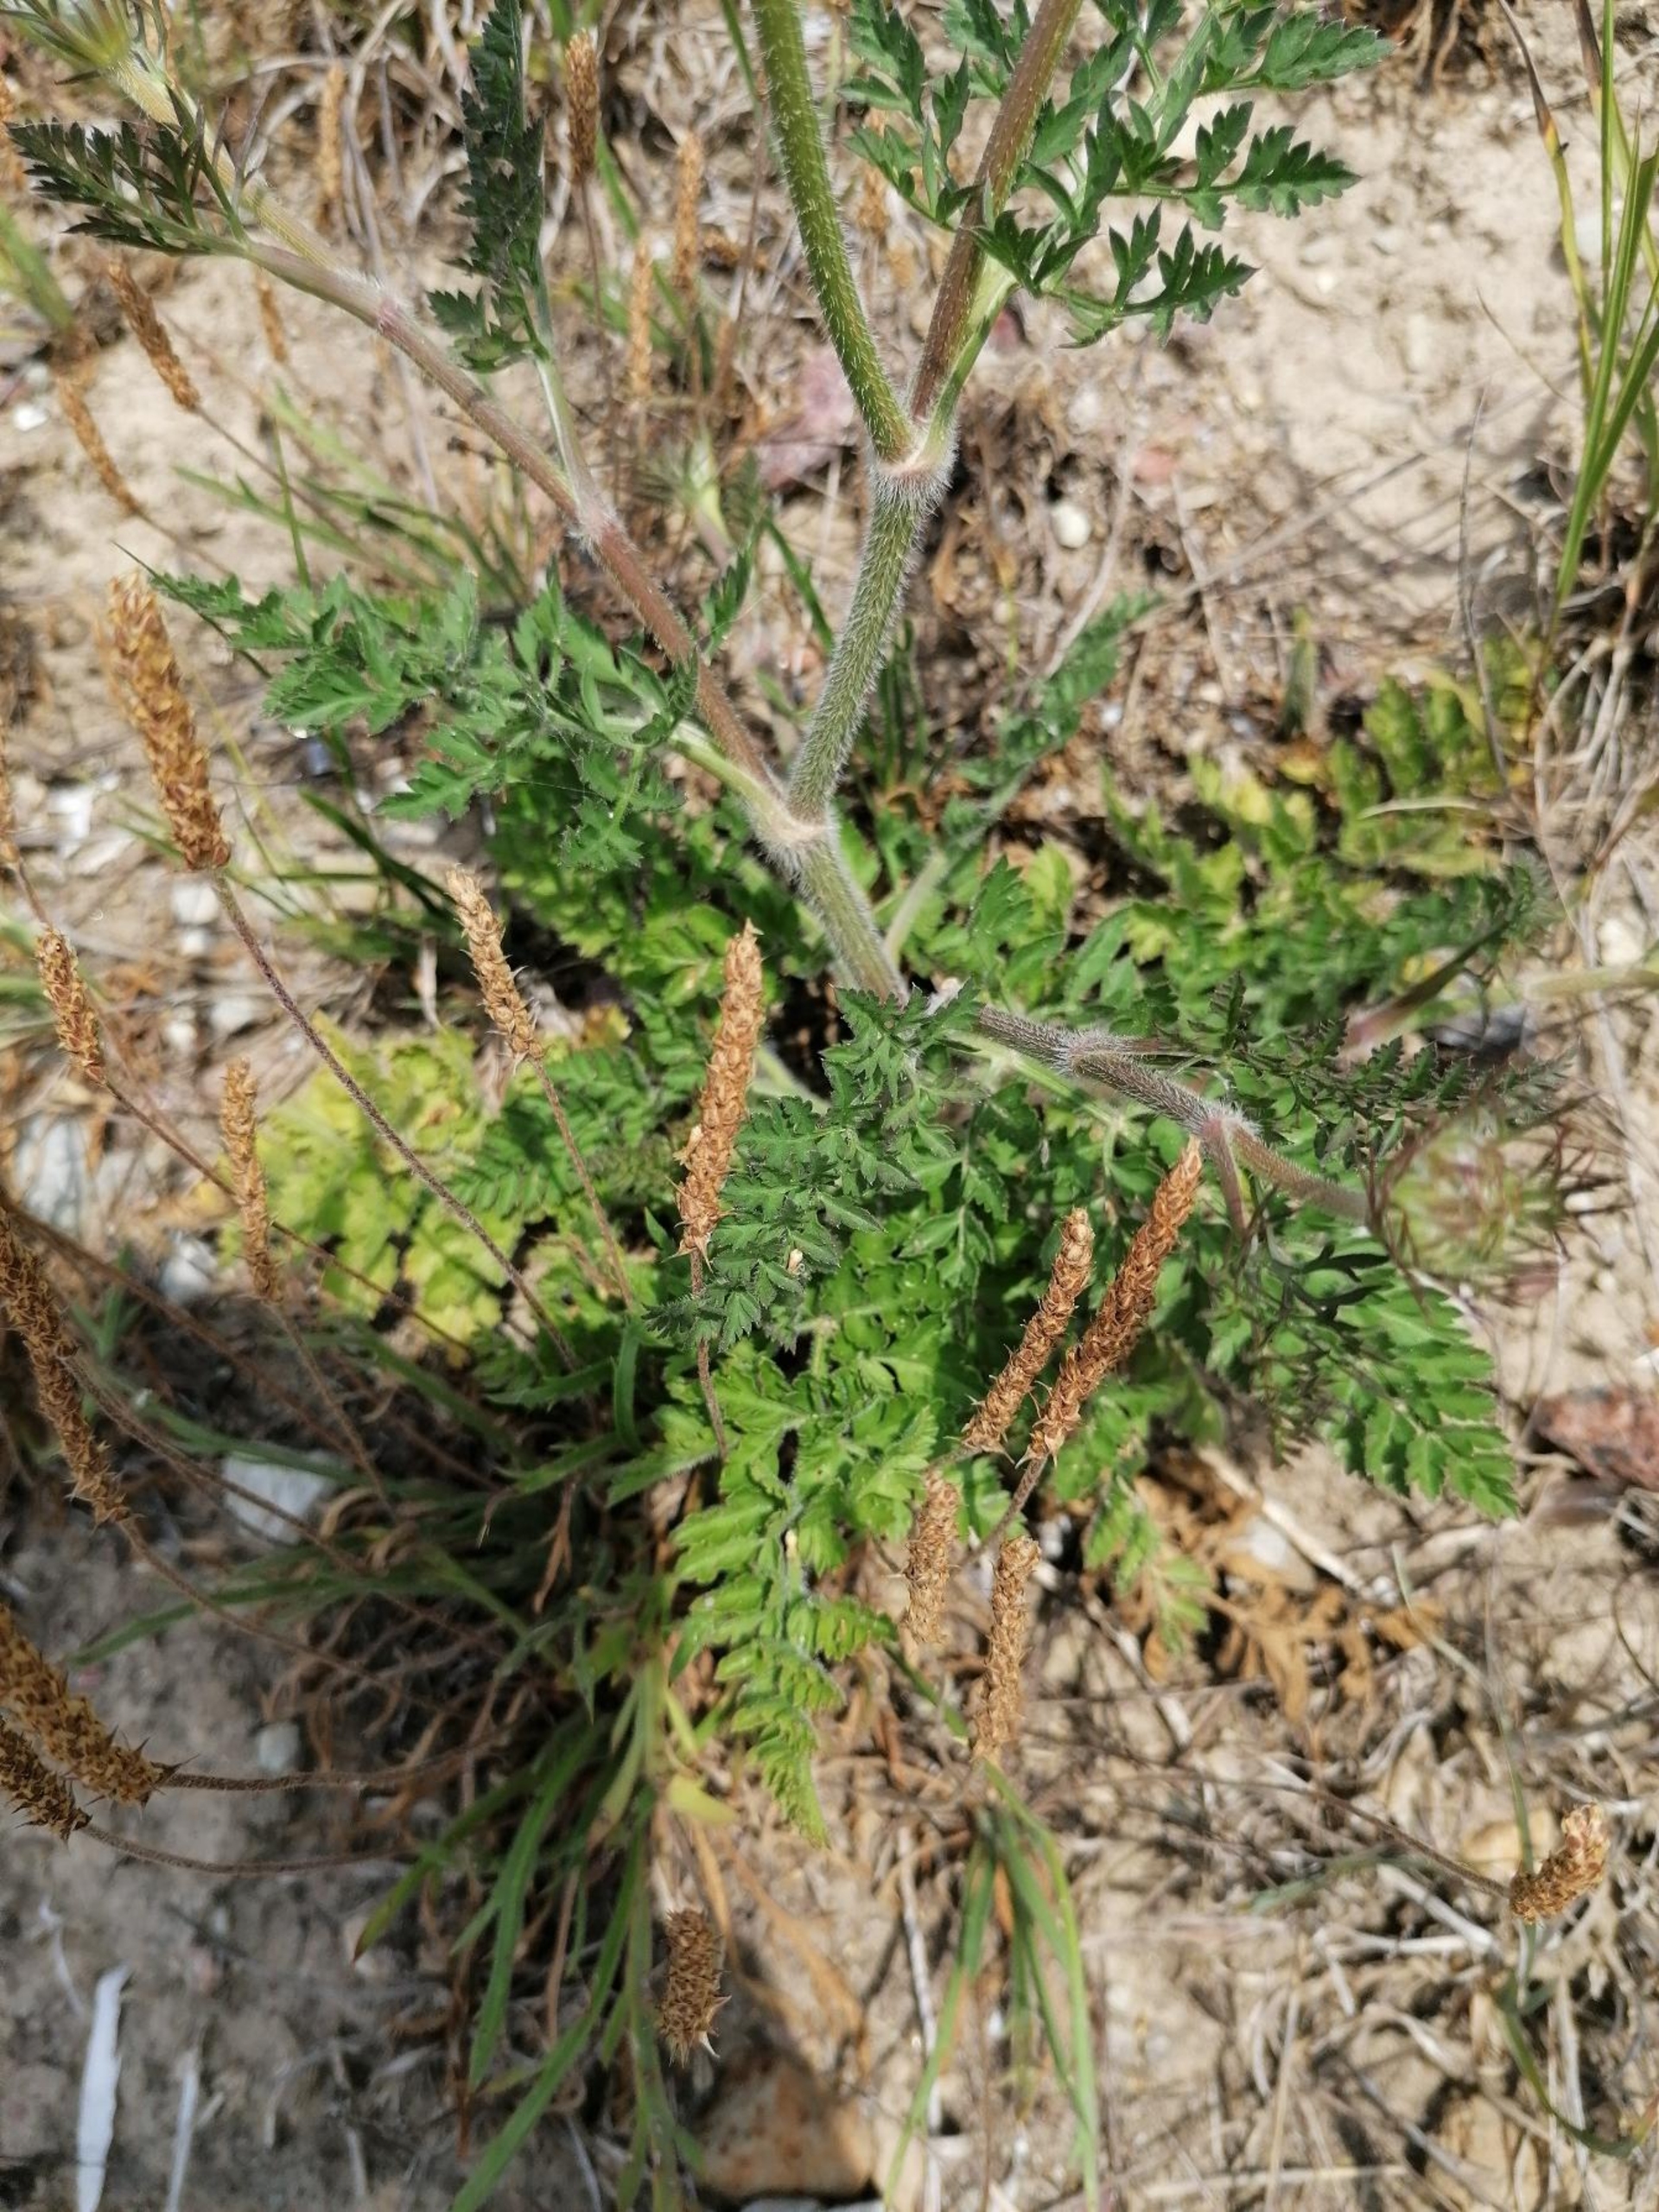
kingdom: Plantae
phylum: Tracheophyta
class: Magnoliopsida
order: Apiales
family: Apiaceae
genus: Daucus
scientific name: Daucus carota
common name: Gulerod
